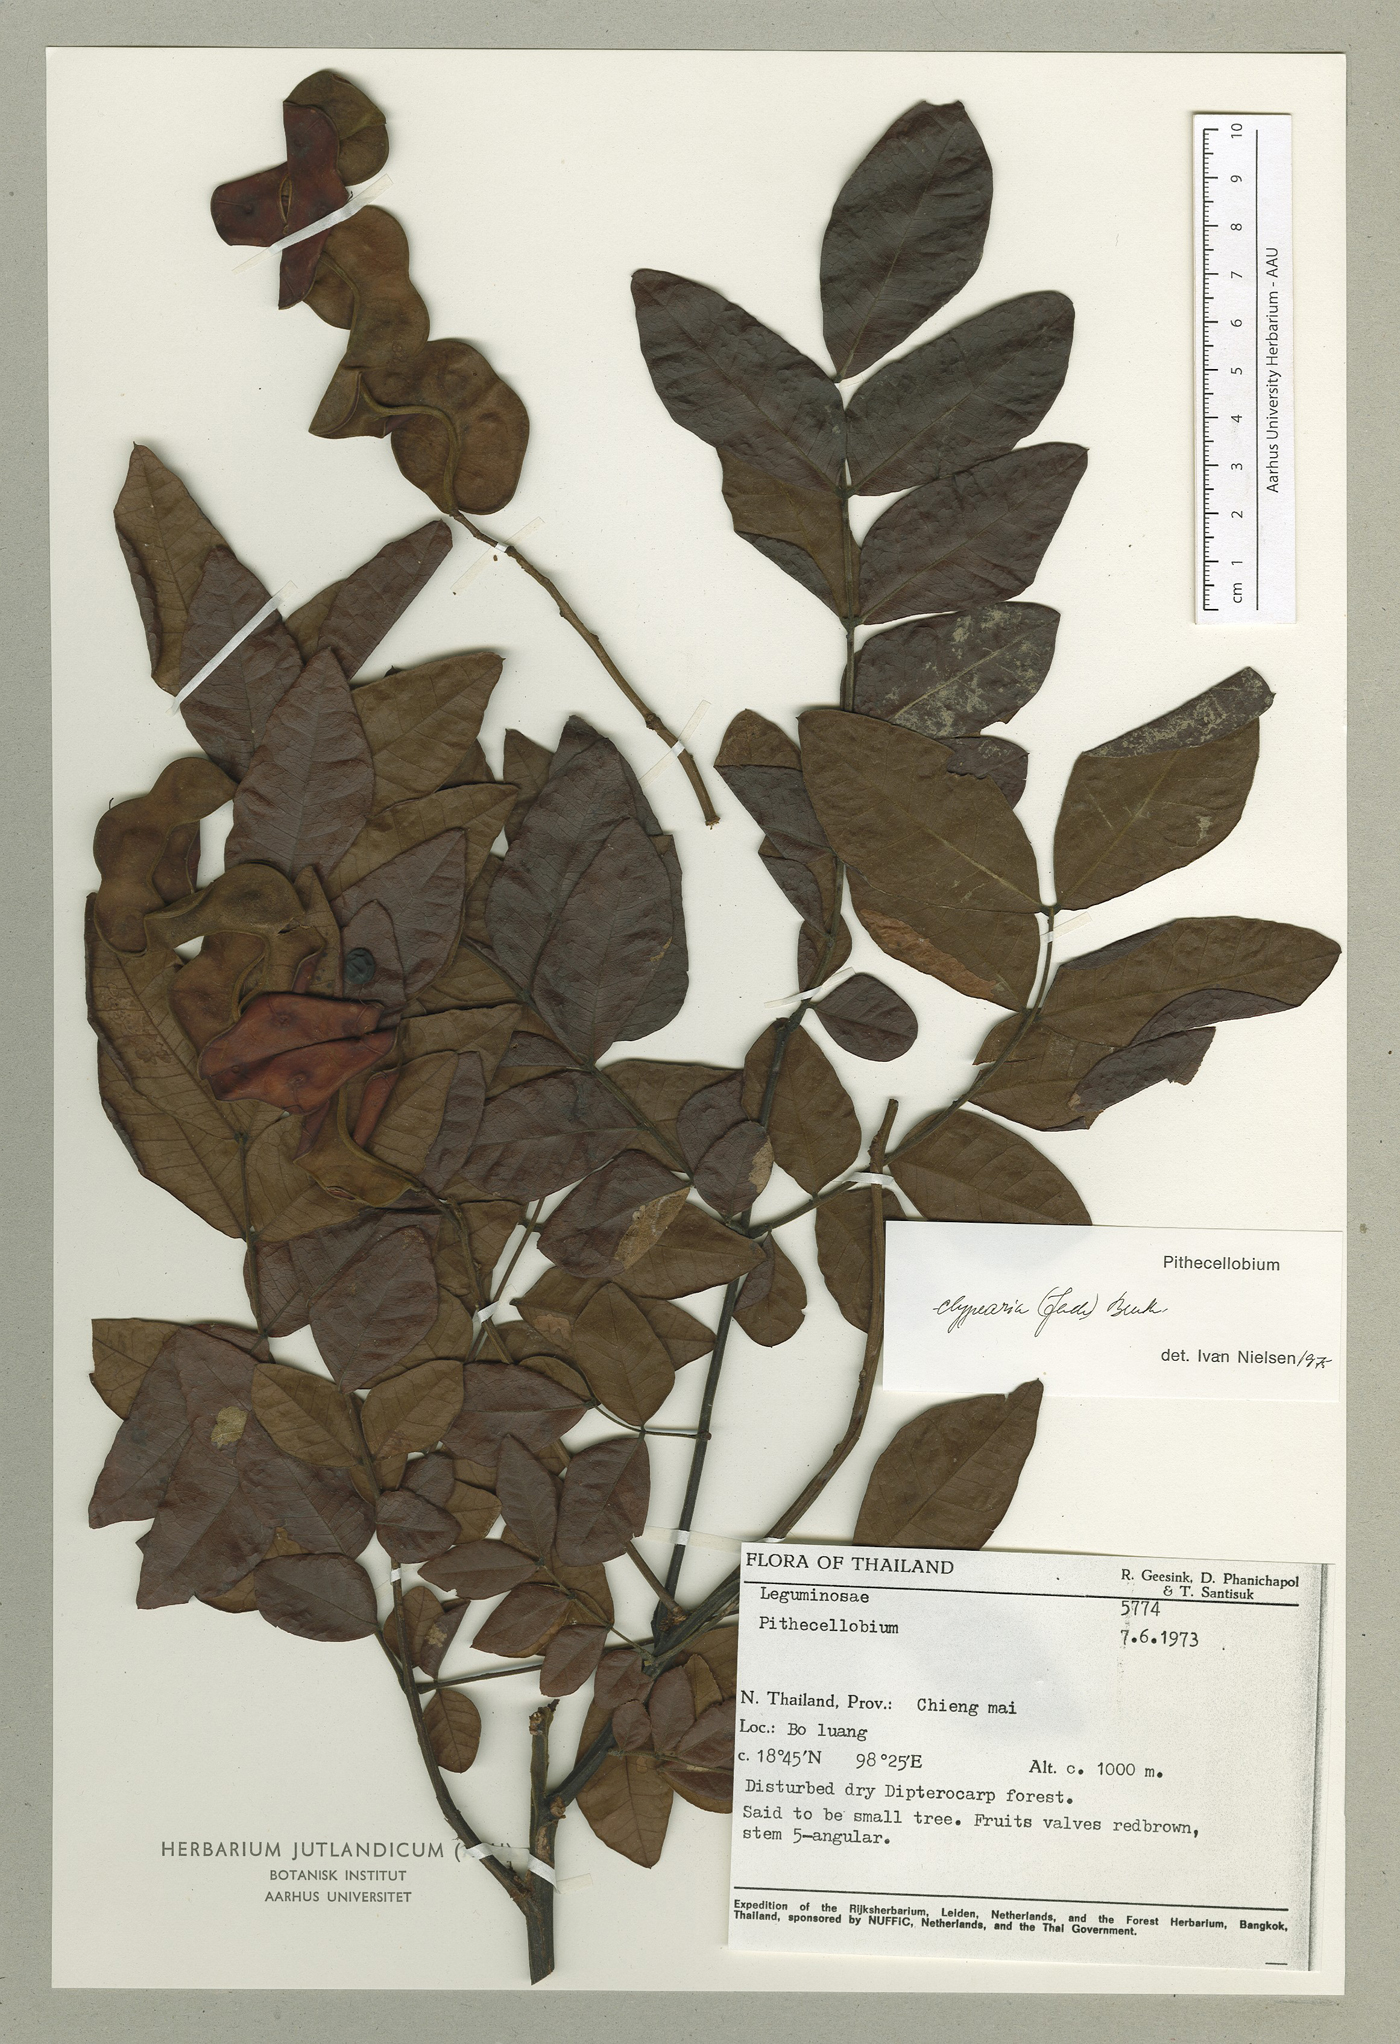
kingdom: Plantae
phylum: Tracheophyta
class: Magnoliopsida
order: Fabales
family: Fabaceae
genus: Archidendron
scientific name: Archidendron clypearia
